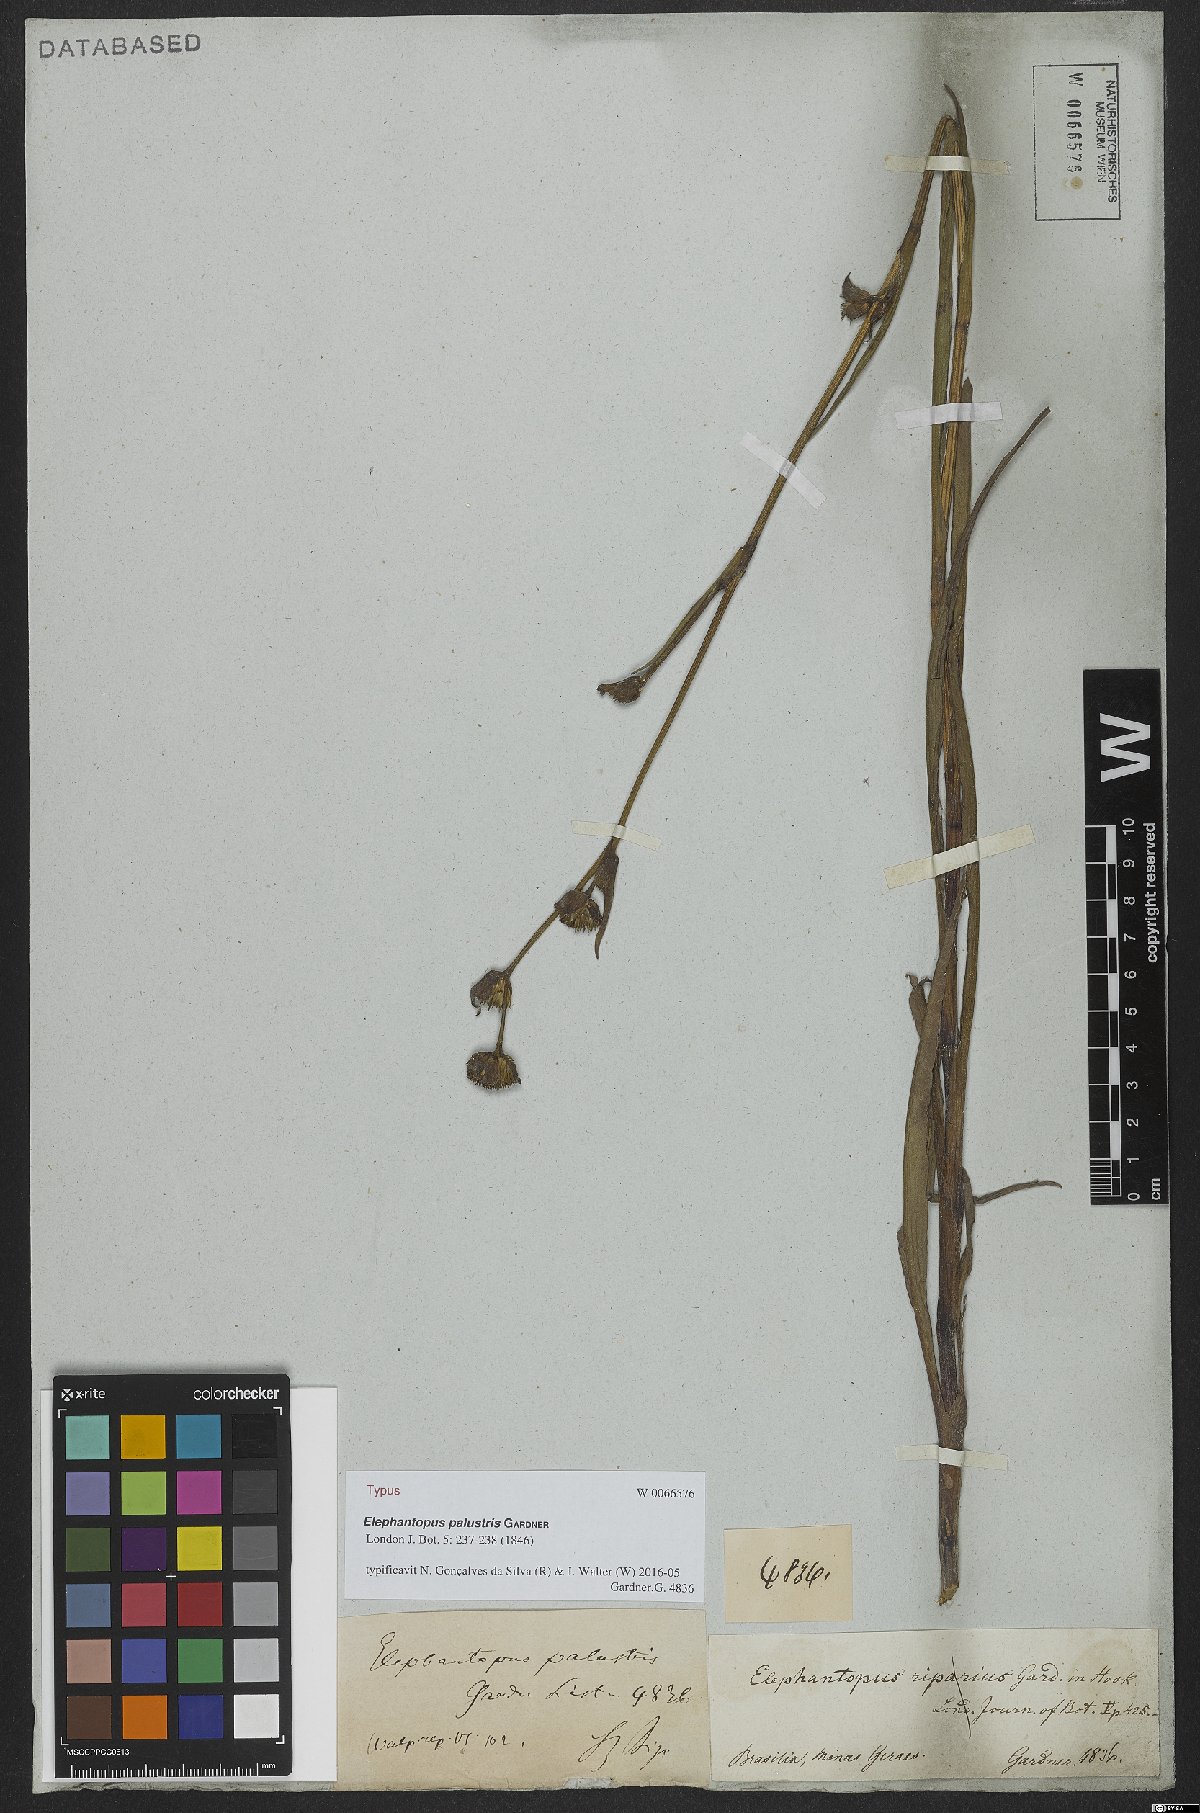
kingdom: Plantae
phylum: Tracheophyta
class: Magnoliopsida
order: Asterales
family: Asteraceae
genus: Elephantopus
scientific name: Elephantopus palustris
